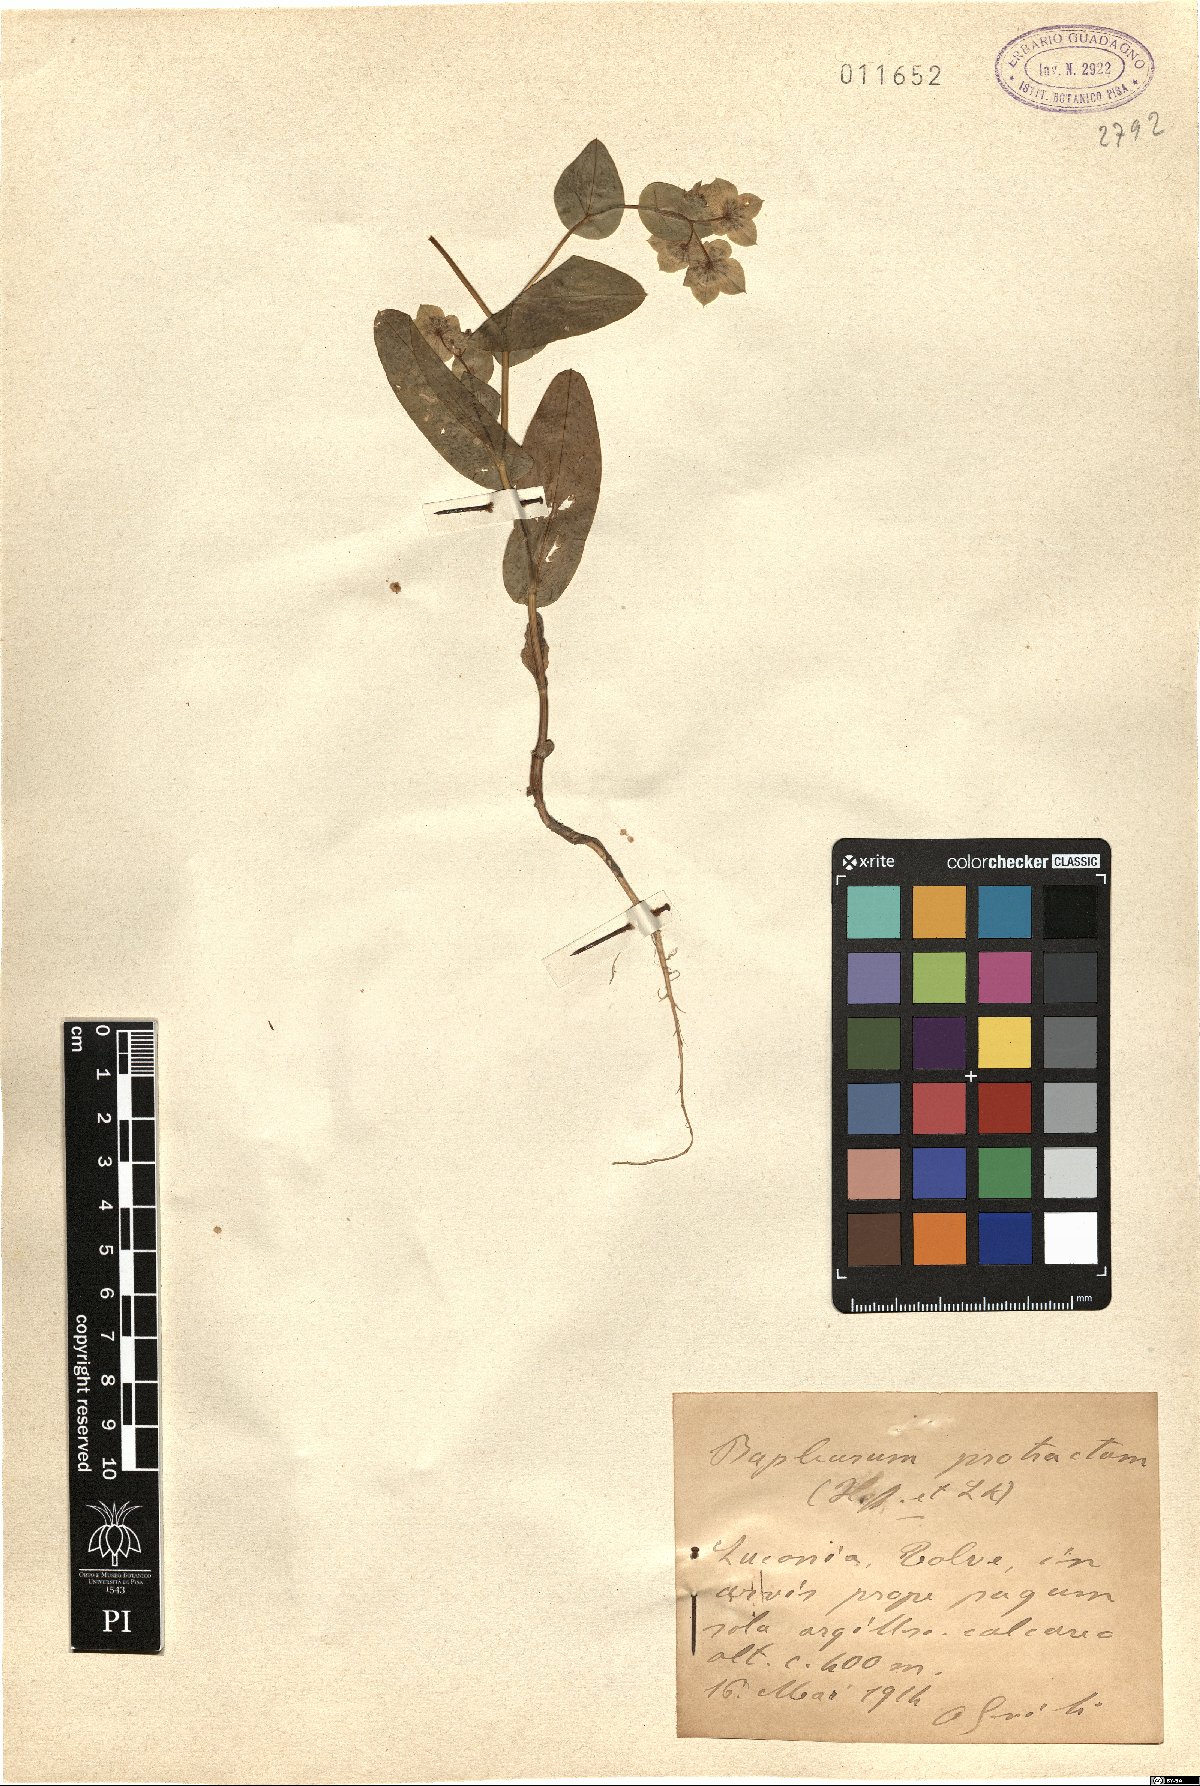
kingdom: Plantae
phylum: Tracheophyta
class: Magnoliopsida
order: Apiales
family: Apiaceae
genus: Bupleurum
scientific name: Bupleurum subovatum
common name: False thorow-wax
